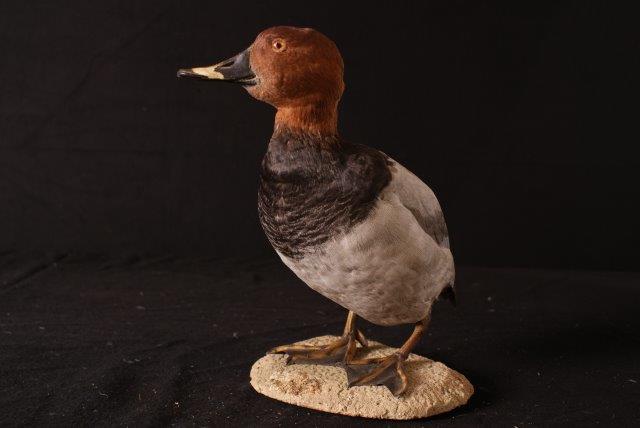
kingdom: Animalia
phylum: Chordata
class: Aves
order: Anseriformes
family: Anatidae
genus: Aythya
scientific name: Aythya ferina
